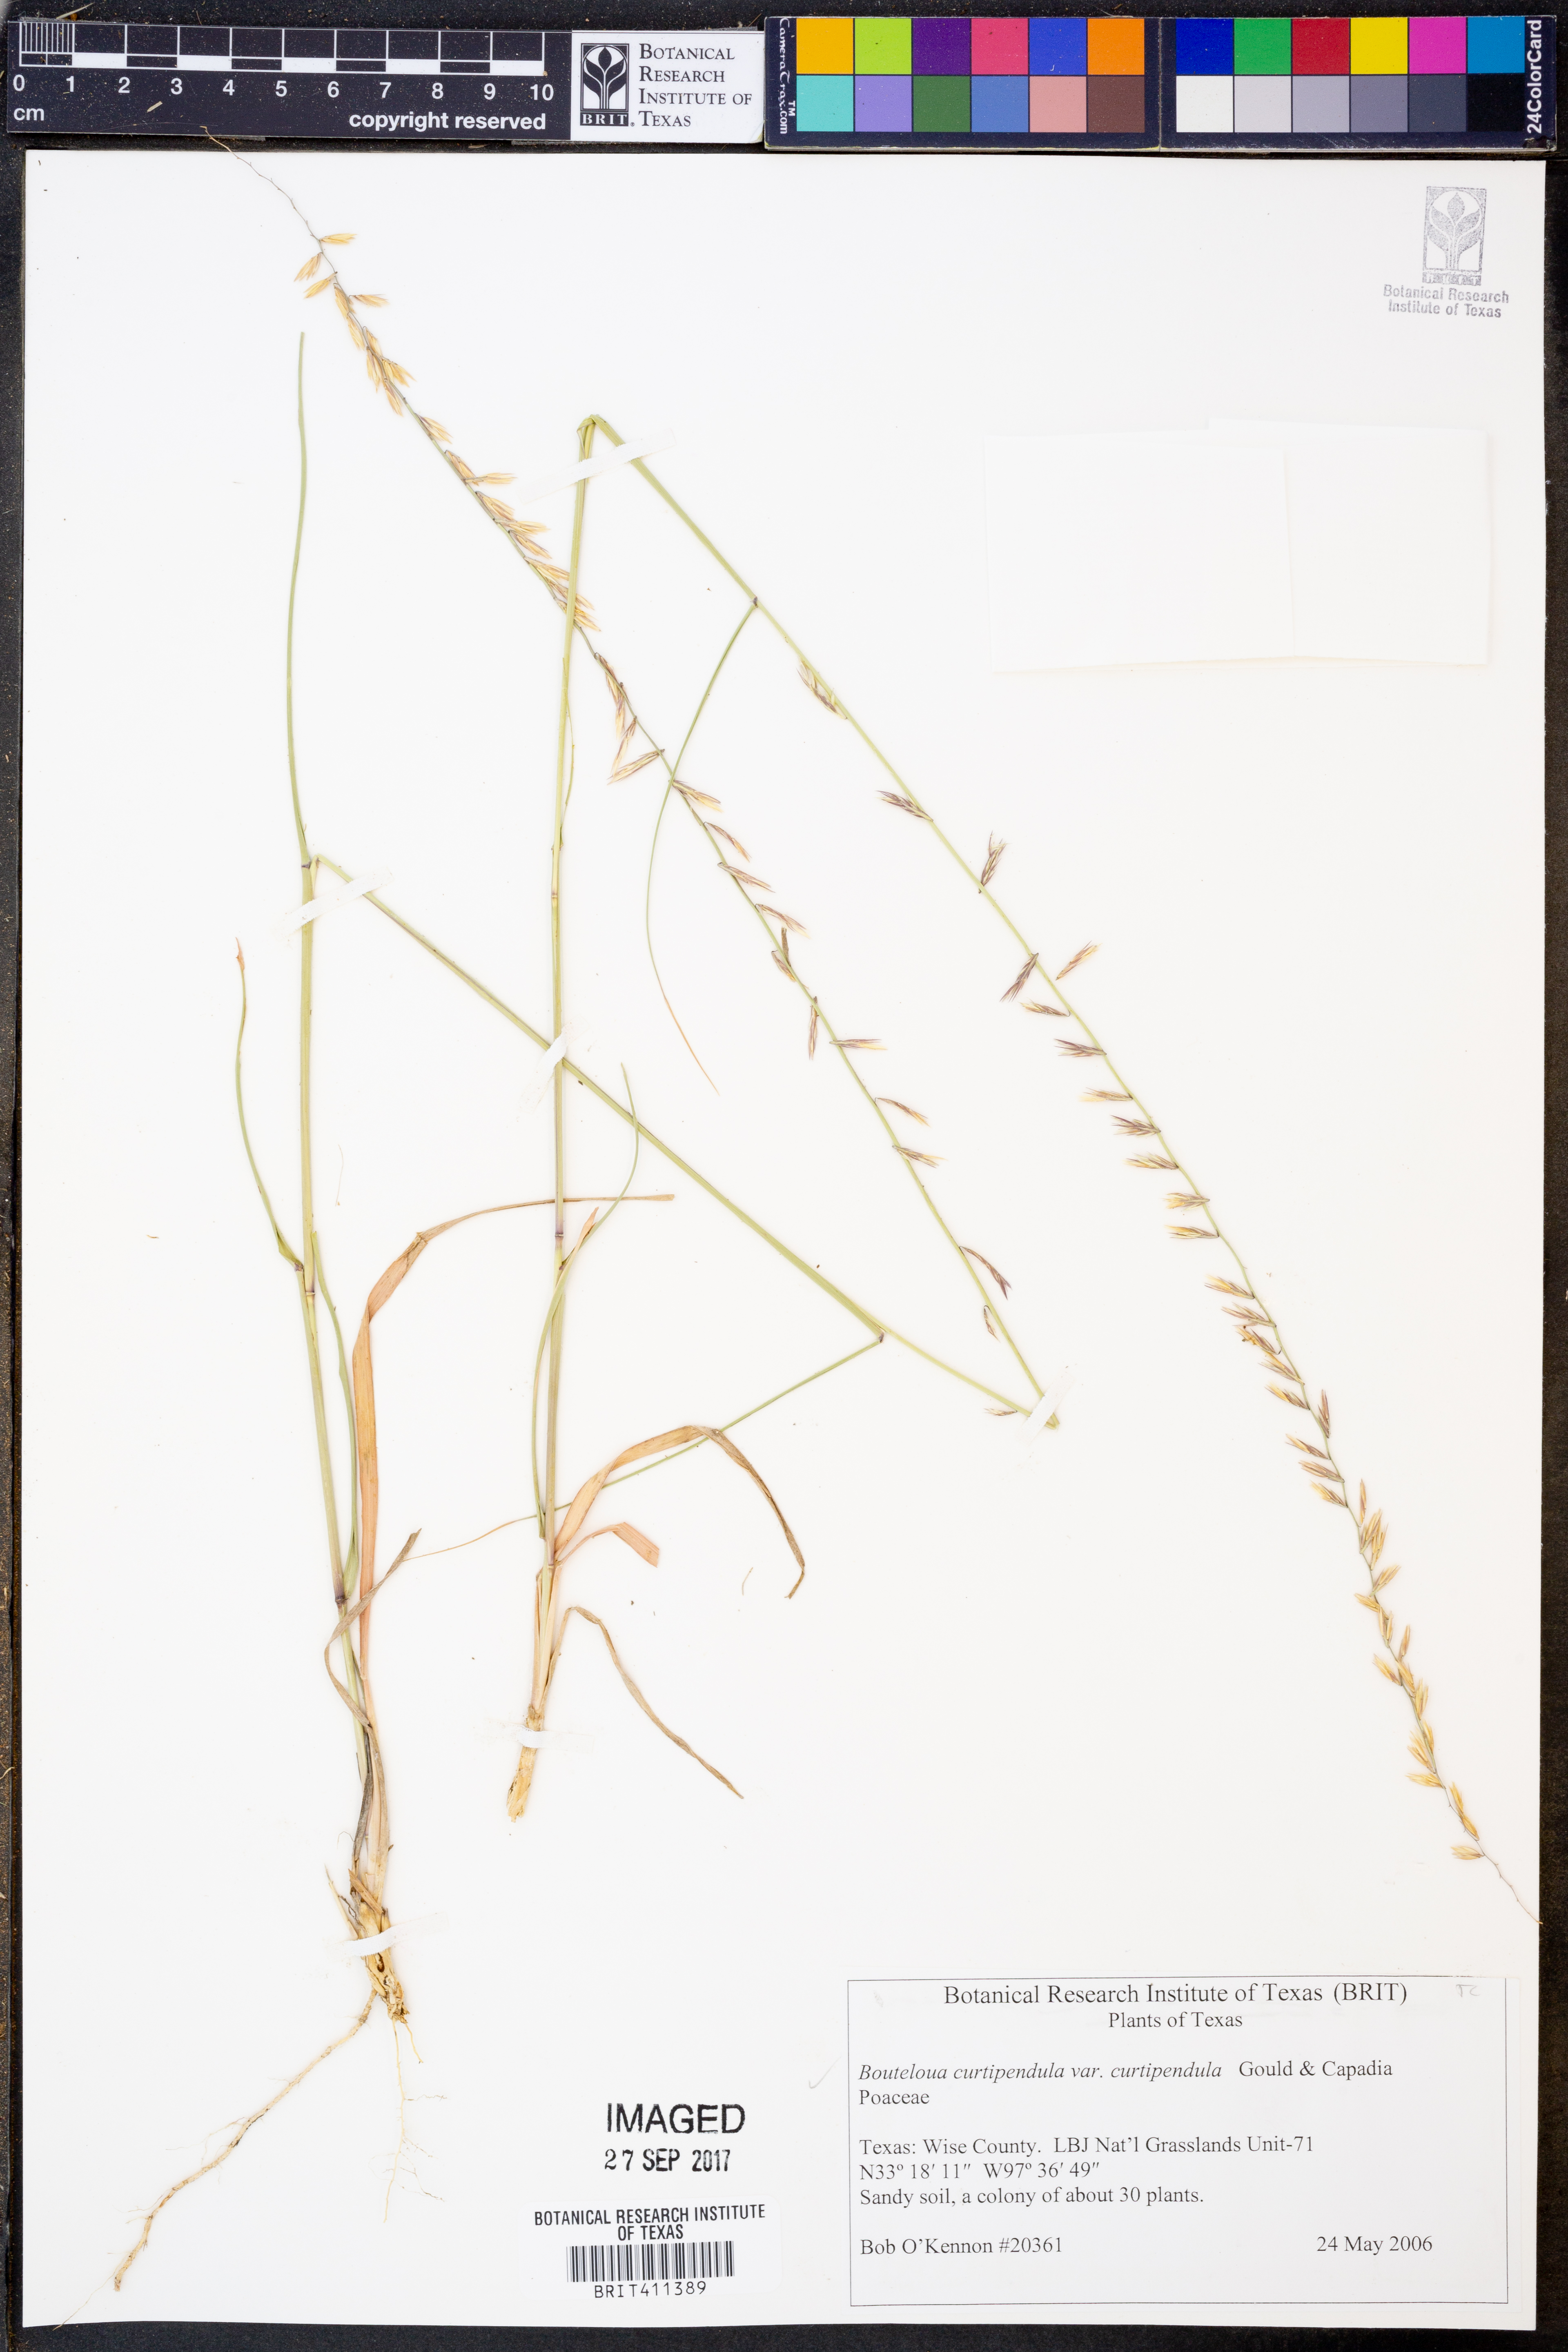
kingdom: Plantae
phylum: Tracheophyta
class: Liliopsida
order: Poales
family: Poaceae
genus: Bouteloua
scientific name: Bouteloua curtipendula
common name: Side-oats grama
